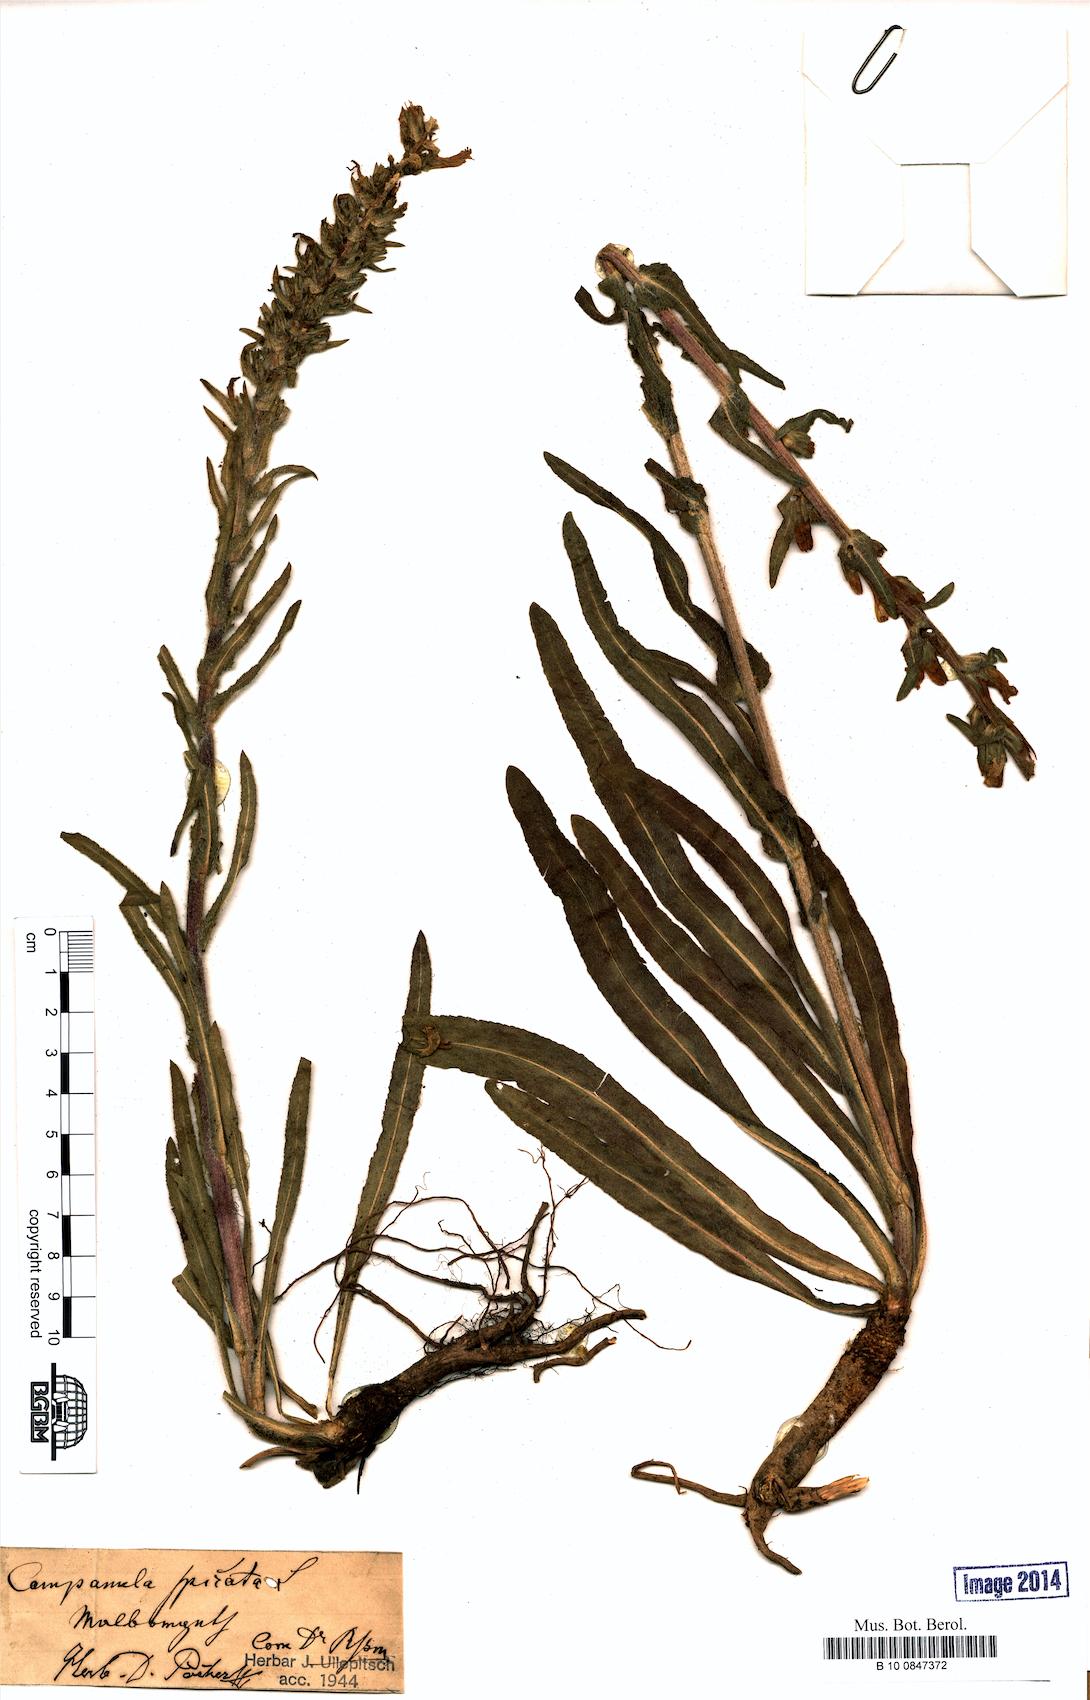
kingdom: Plantae
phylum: Tracheophyta
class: Magnoliopsida
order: Asterales
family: Campanulaceae
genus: Campanula
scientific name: Campanula spicata
